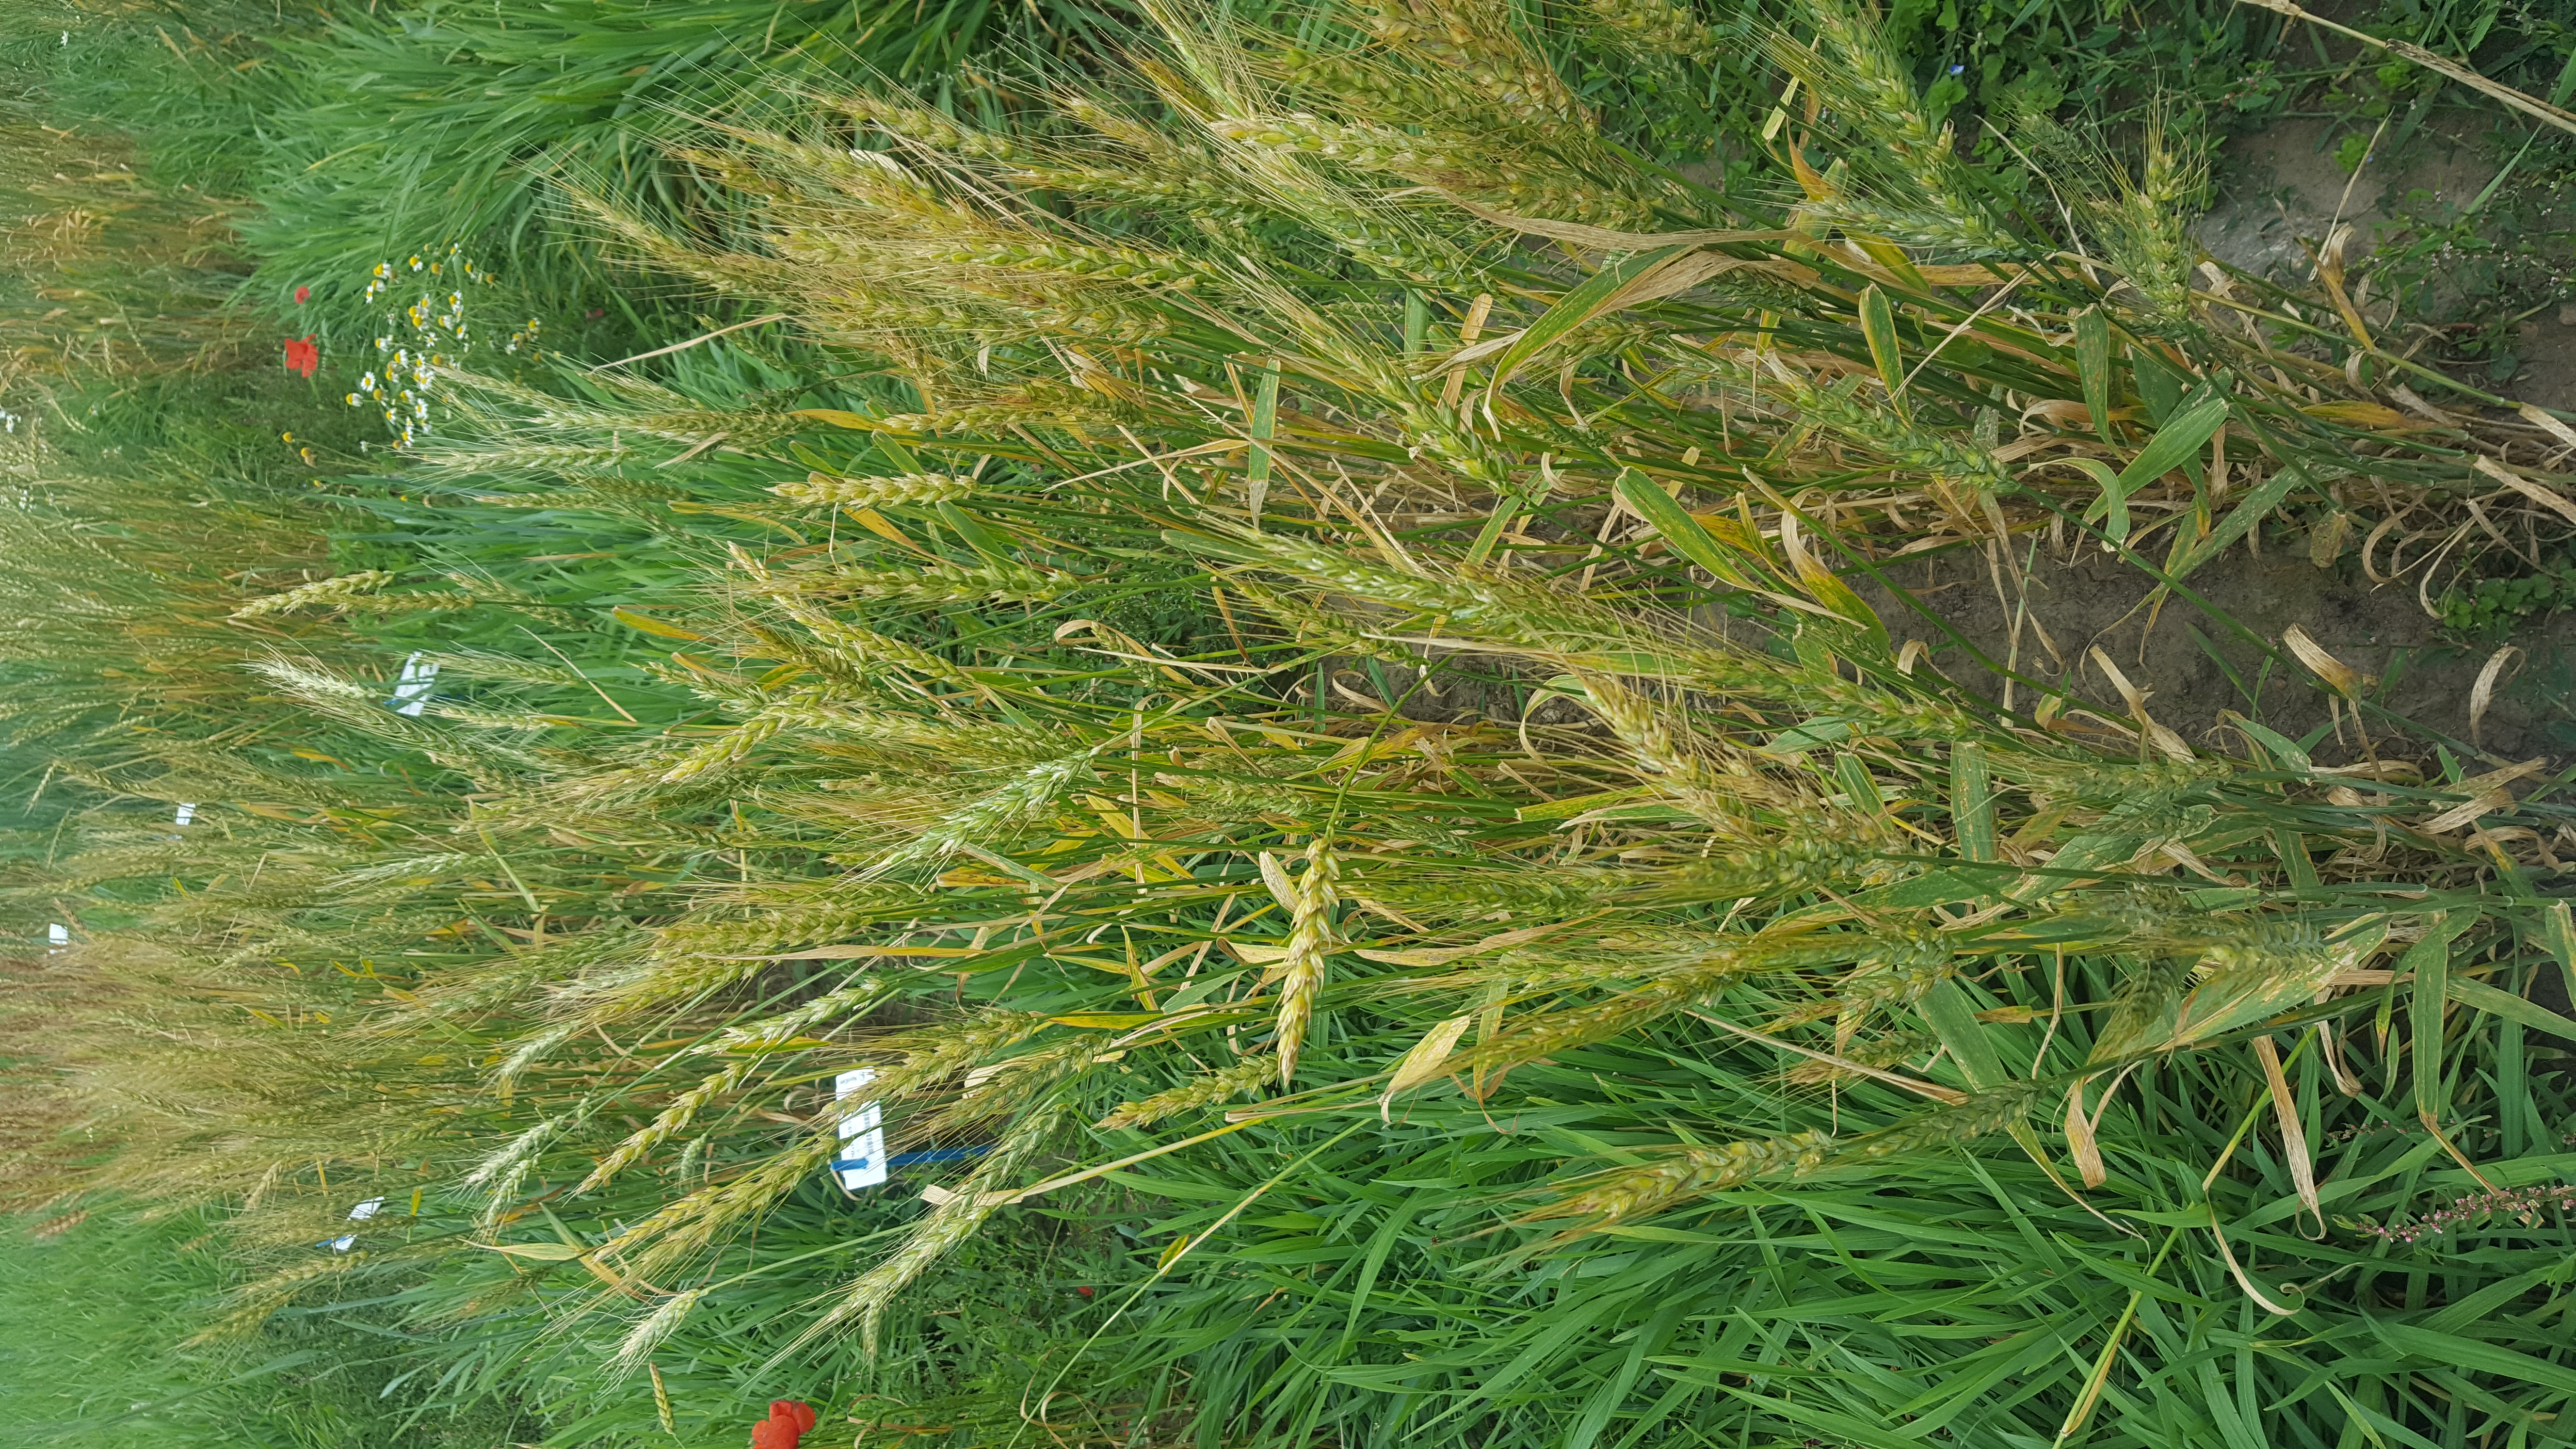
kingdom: Plantae
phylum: Tracheophyta
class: Liliopsida
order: Poales
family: Poaceae
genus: Triticum
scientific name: Triticum aestivum
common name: Common wheat
